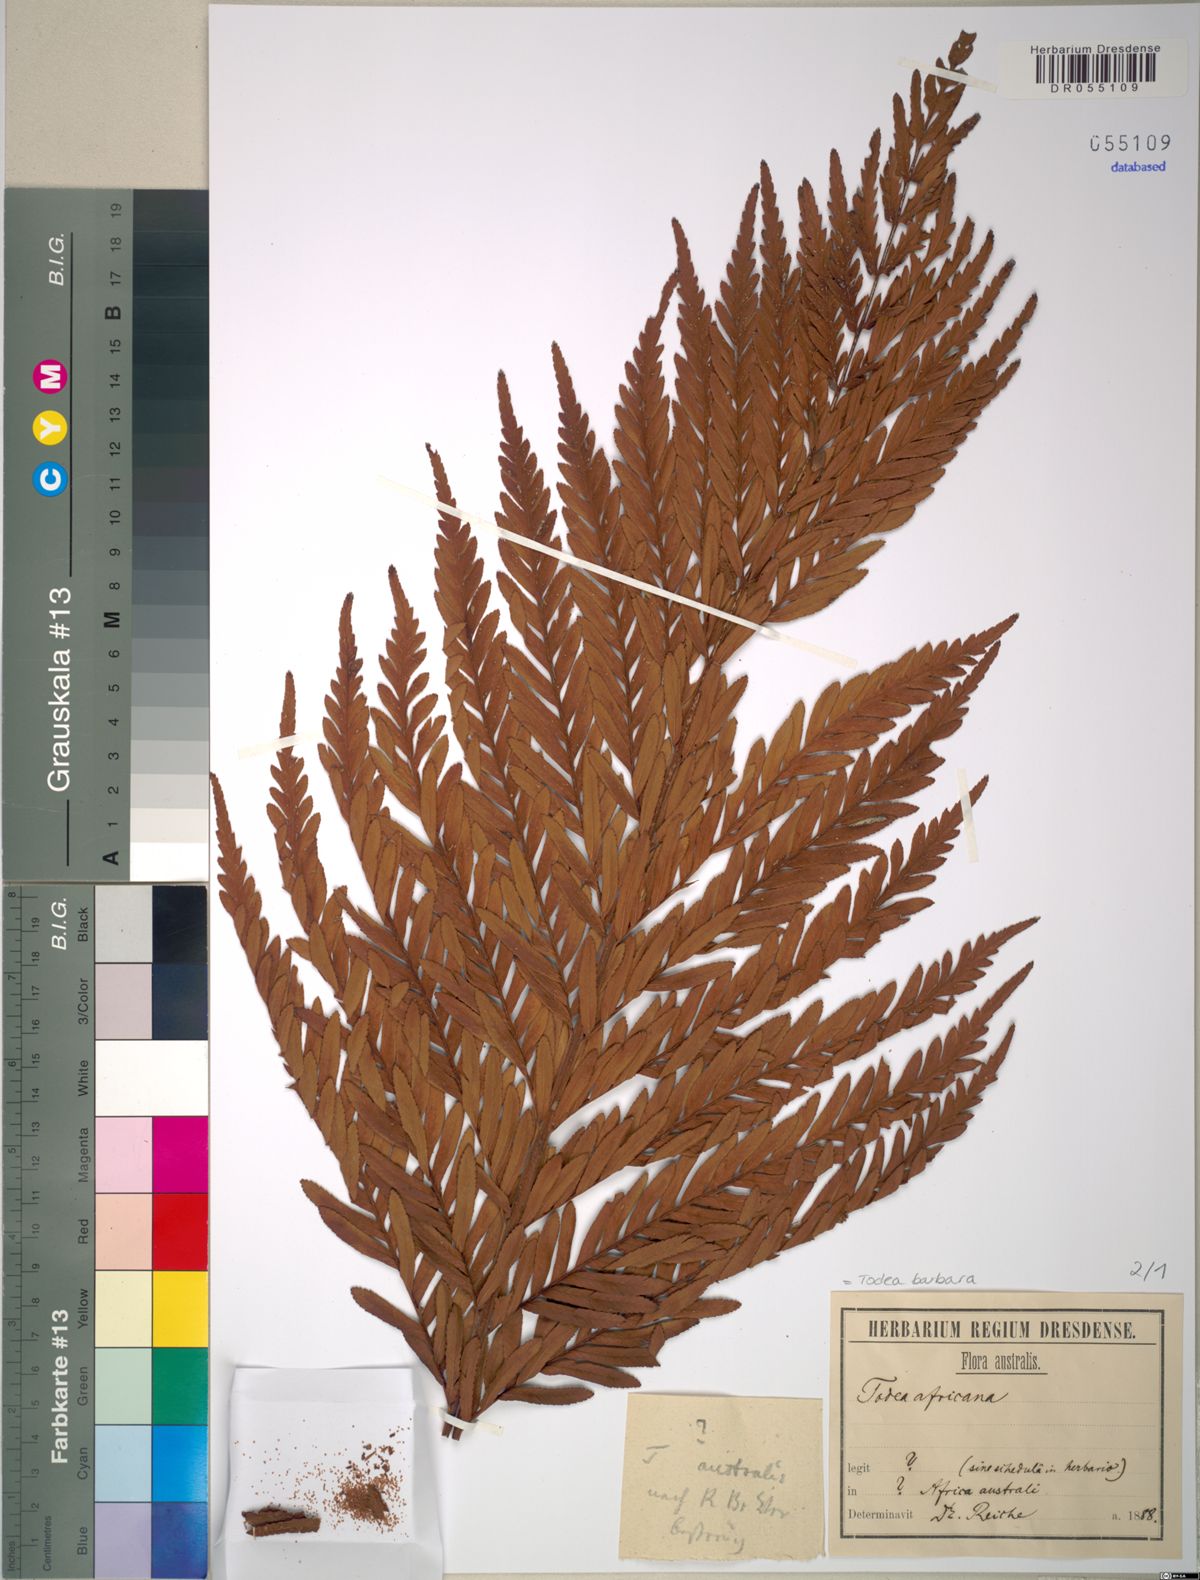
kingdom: Plantae
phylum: Tracheophyta
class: Polypodiopsida
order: Osmundales
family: Osmundaceae
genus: Todea
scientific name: Todea barbara
